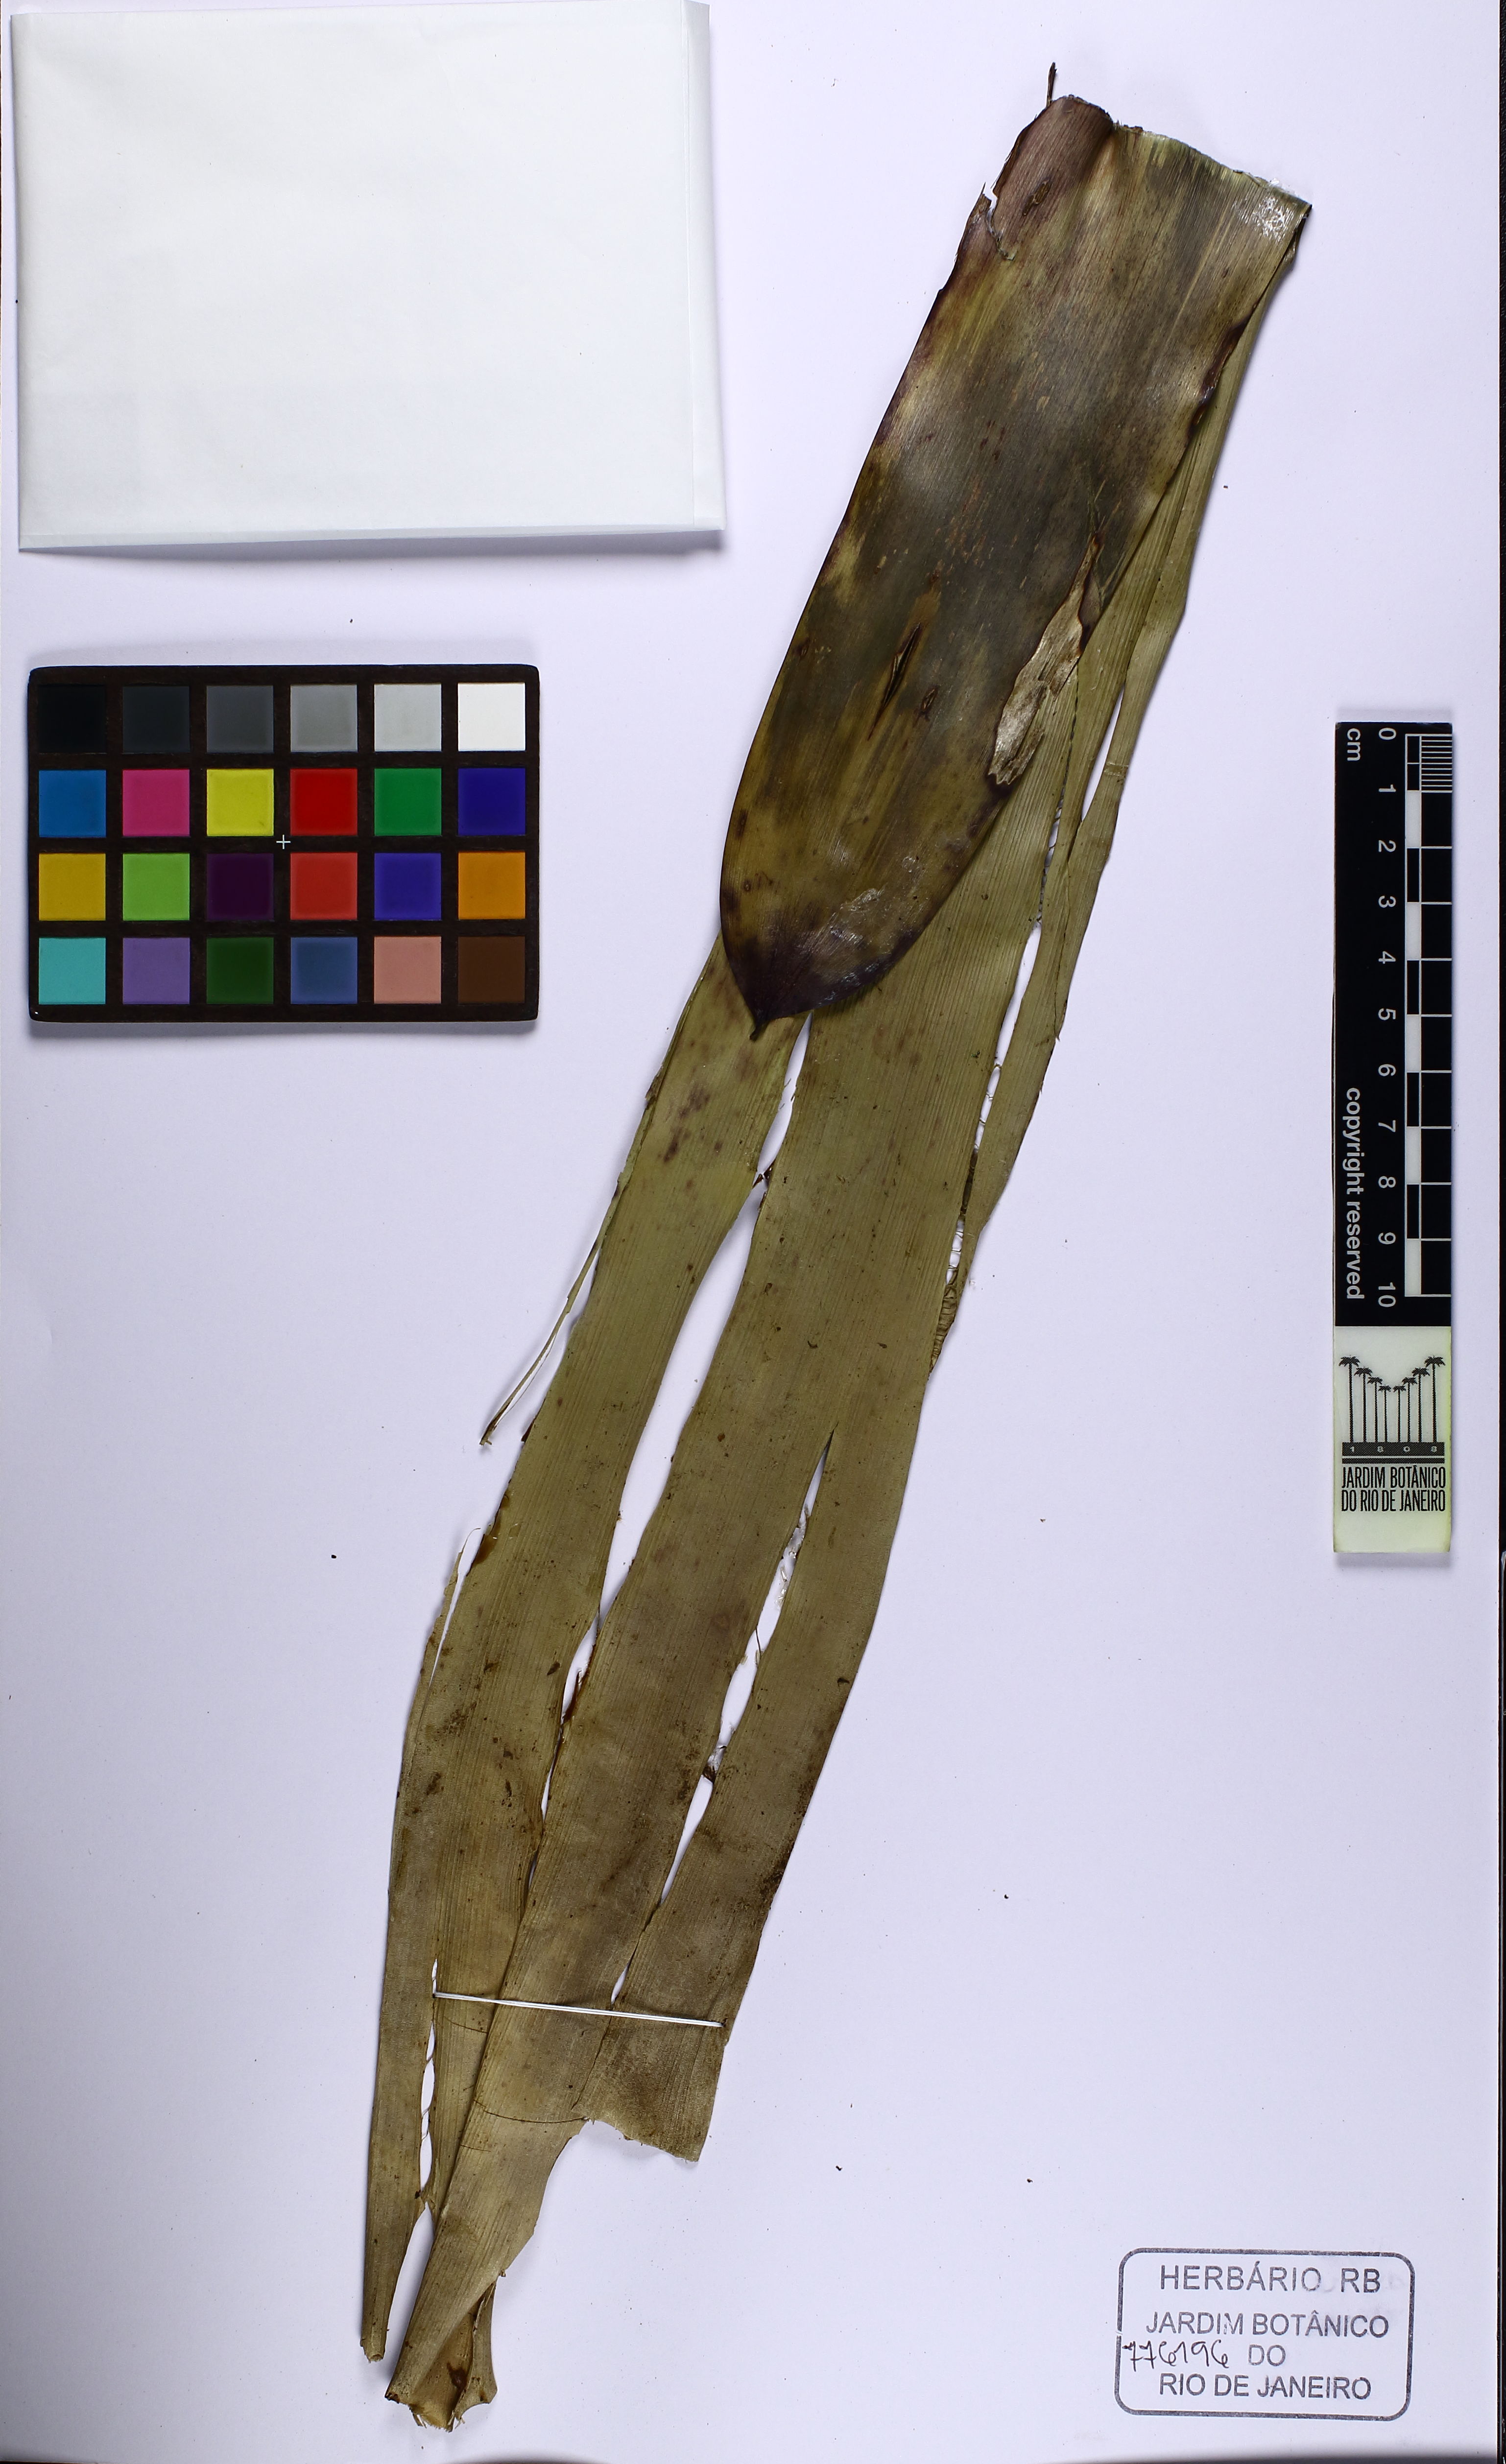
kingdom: Plantae
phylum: Tracheophyta
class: Liliopsida
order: Poales
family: Bromeliaceae
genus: Vriesea
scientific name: Vriesea sazimae
